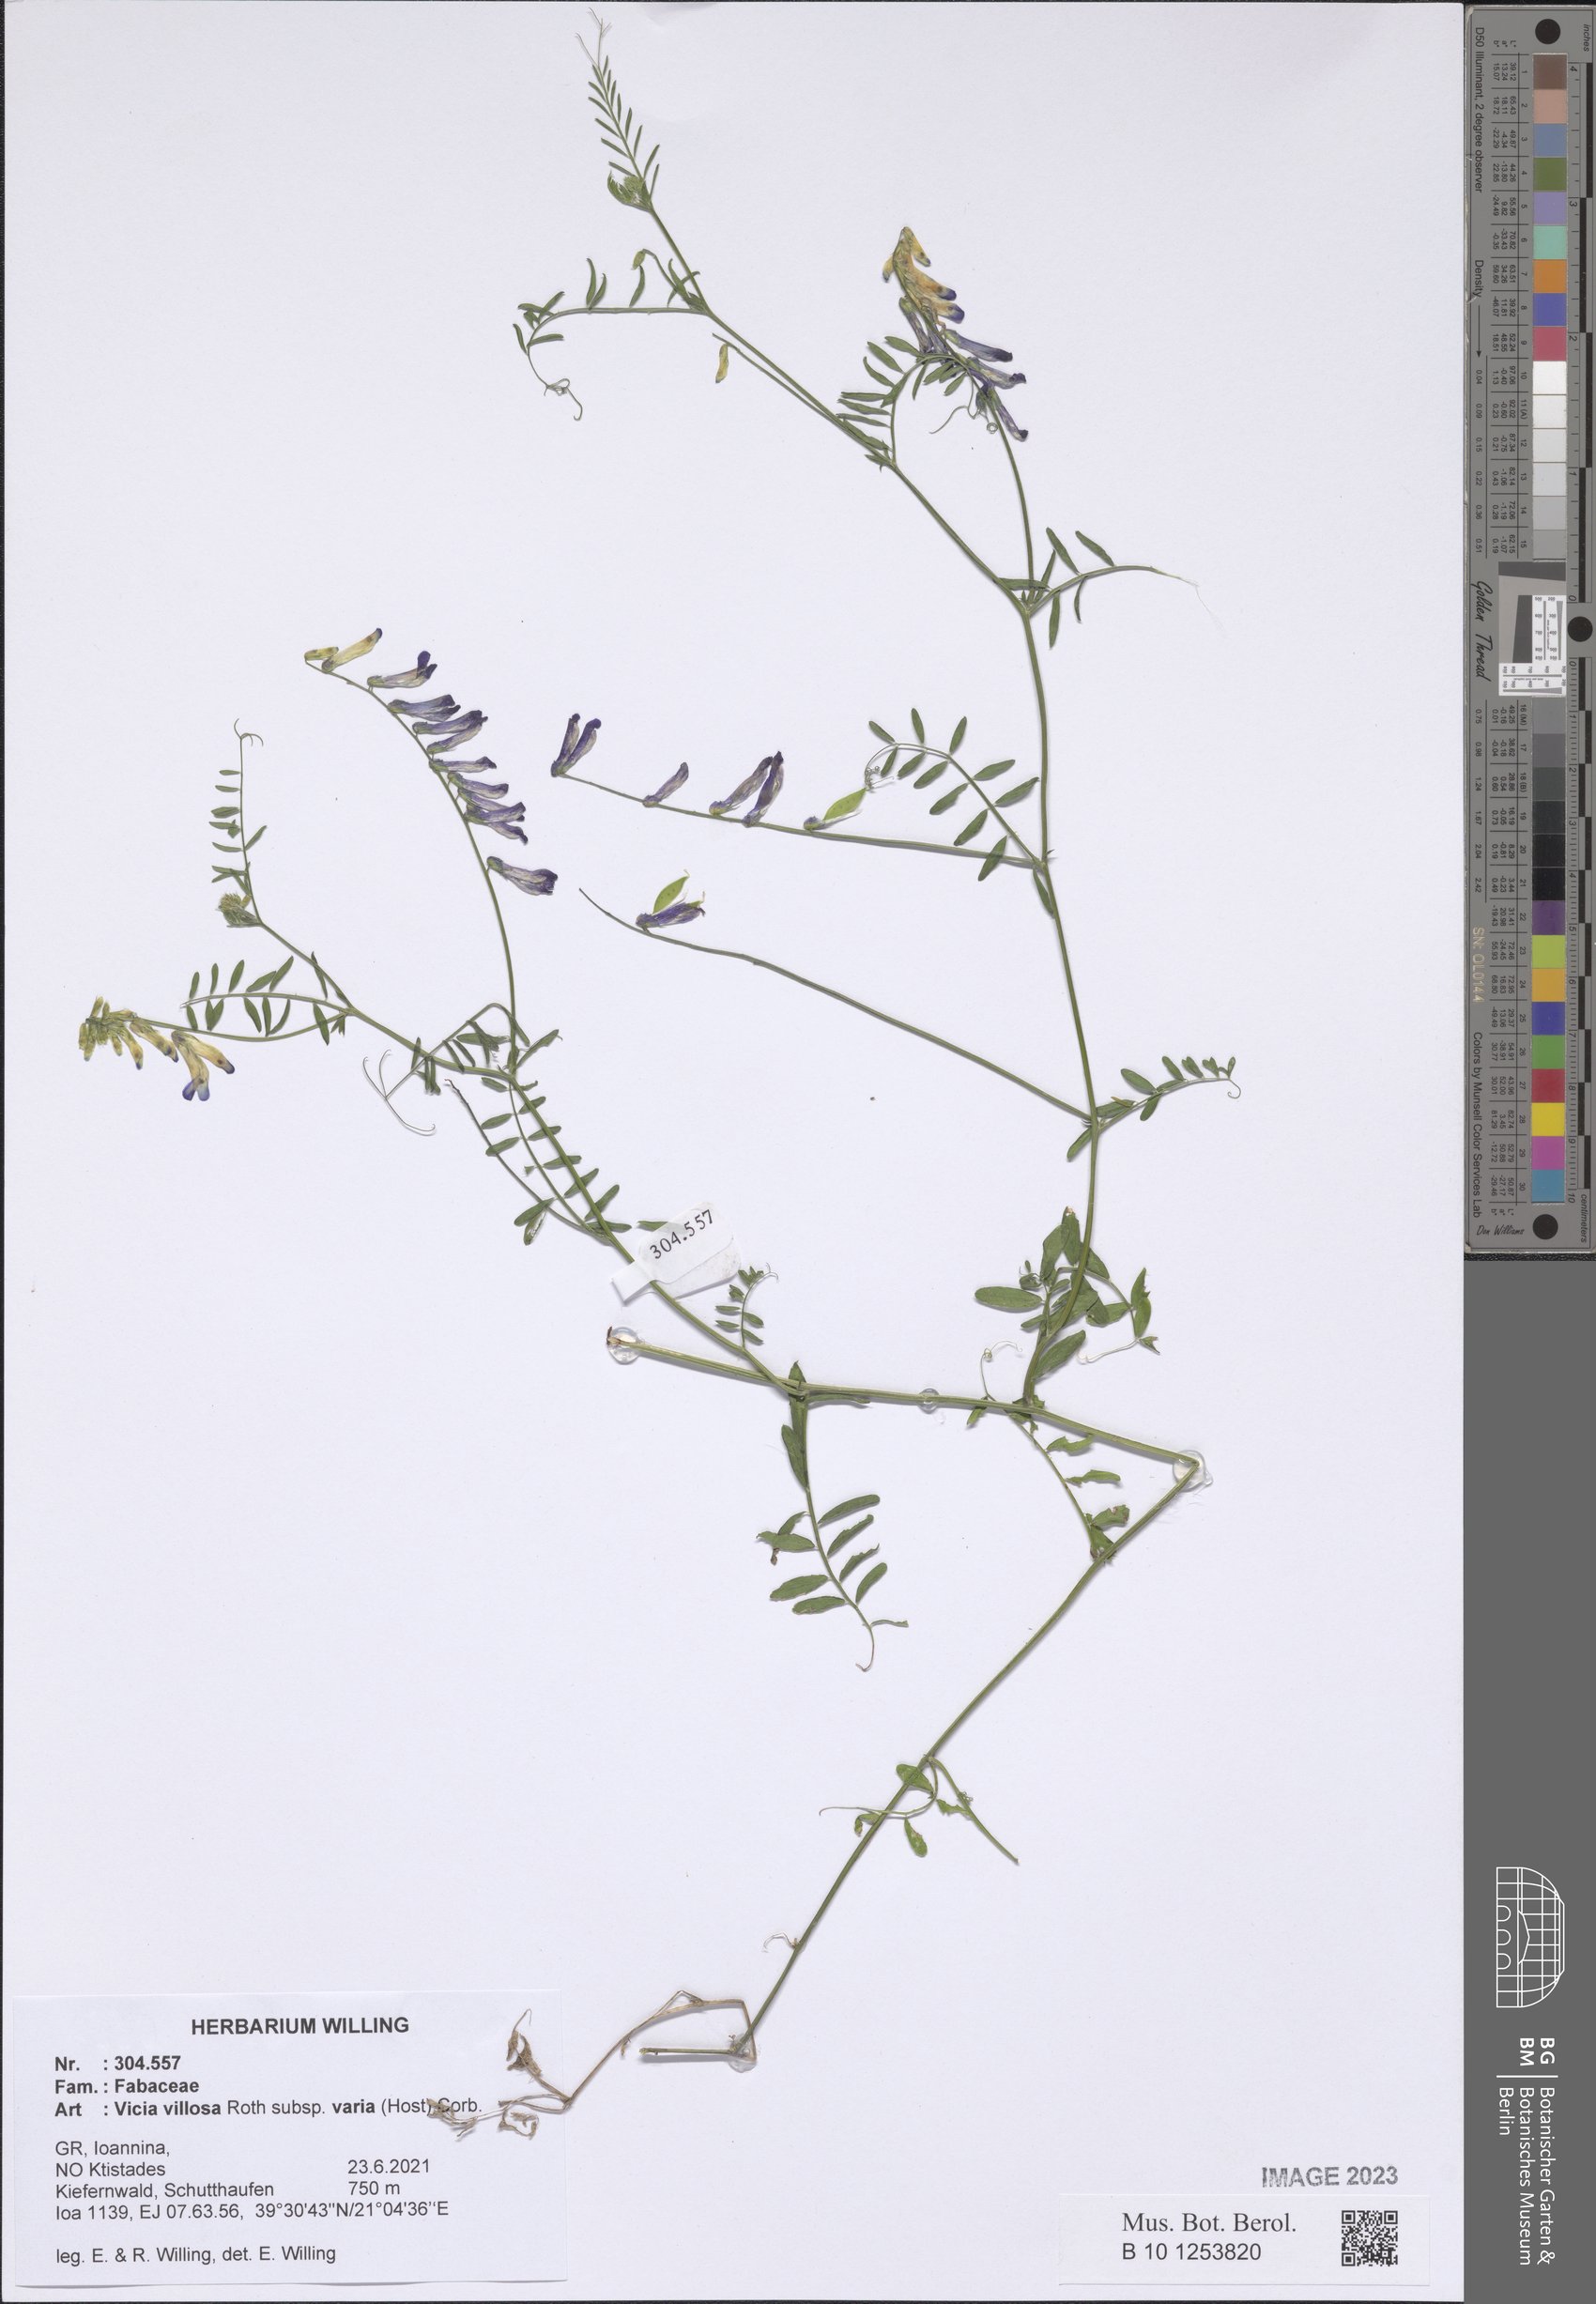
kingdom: Plantae
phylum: Tracheophyta
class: Magnoliopsida
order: Fabales
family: Fabaceae
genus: Vicia
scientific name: Vicia villosa
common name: Fodder vetch
